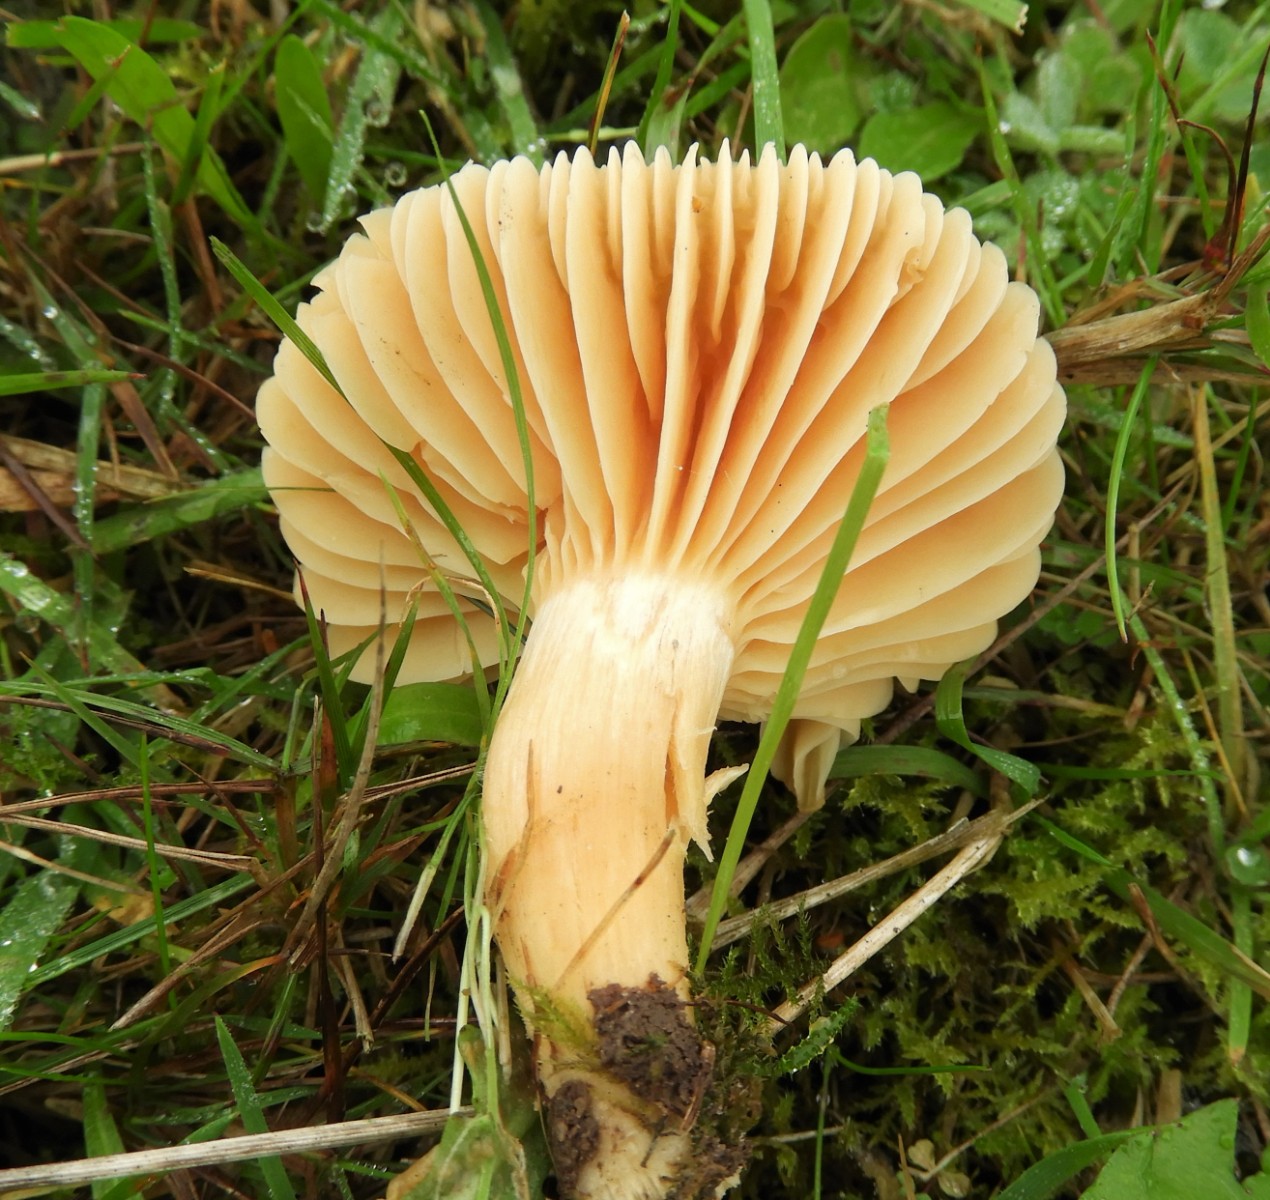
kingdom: Fungi
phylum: Basidiomycota
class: Agaricomycetes
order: Agaricales
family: Hygrophoraceae
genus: Cuphophyllus
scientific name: Cuphophyllus pratensis
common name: eng-vokshat
